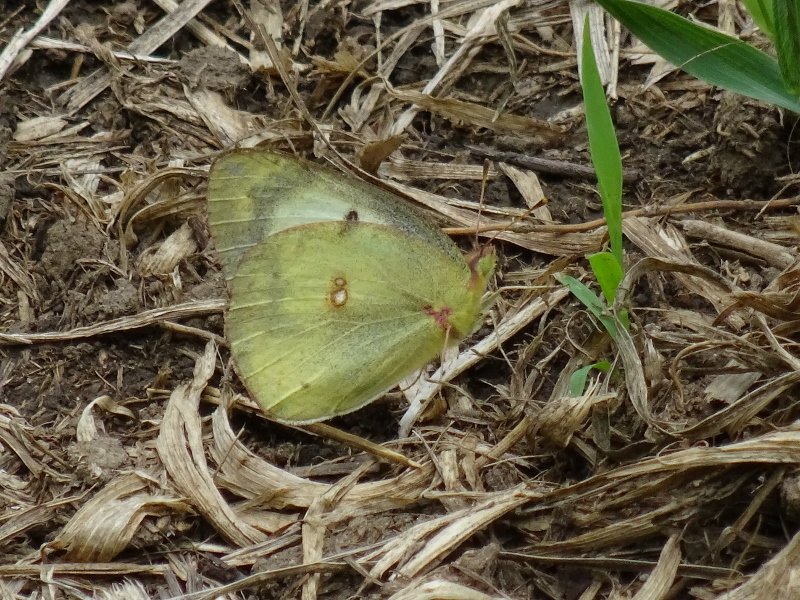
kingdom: Animalia
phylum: Arthropoda
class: Insecta
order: Lepidoptera
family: Pieridae
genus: Colias
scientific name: Colias philodice
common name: Clouded Sulphur
